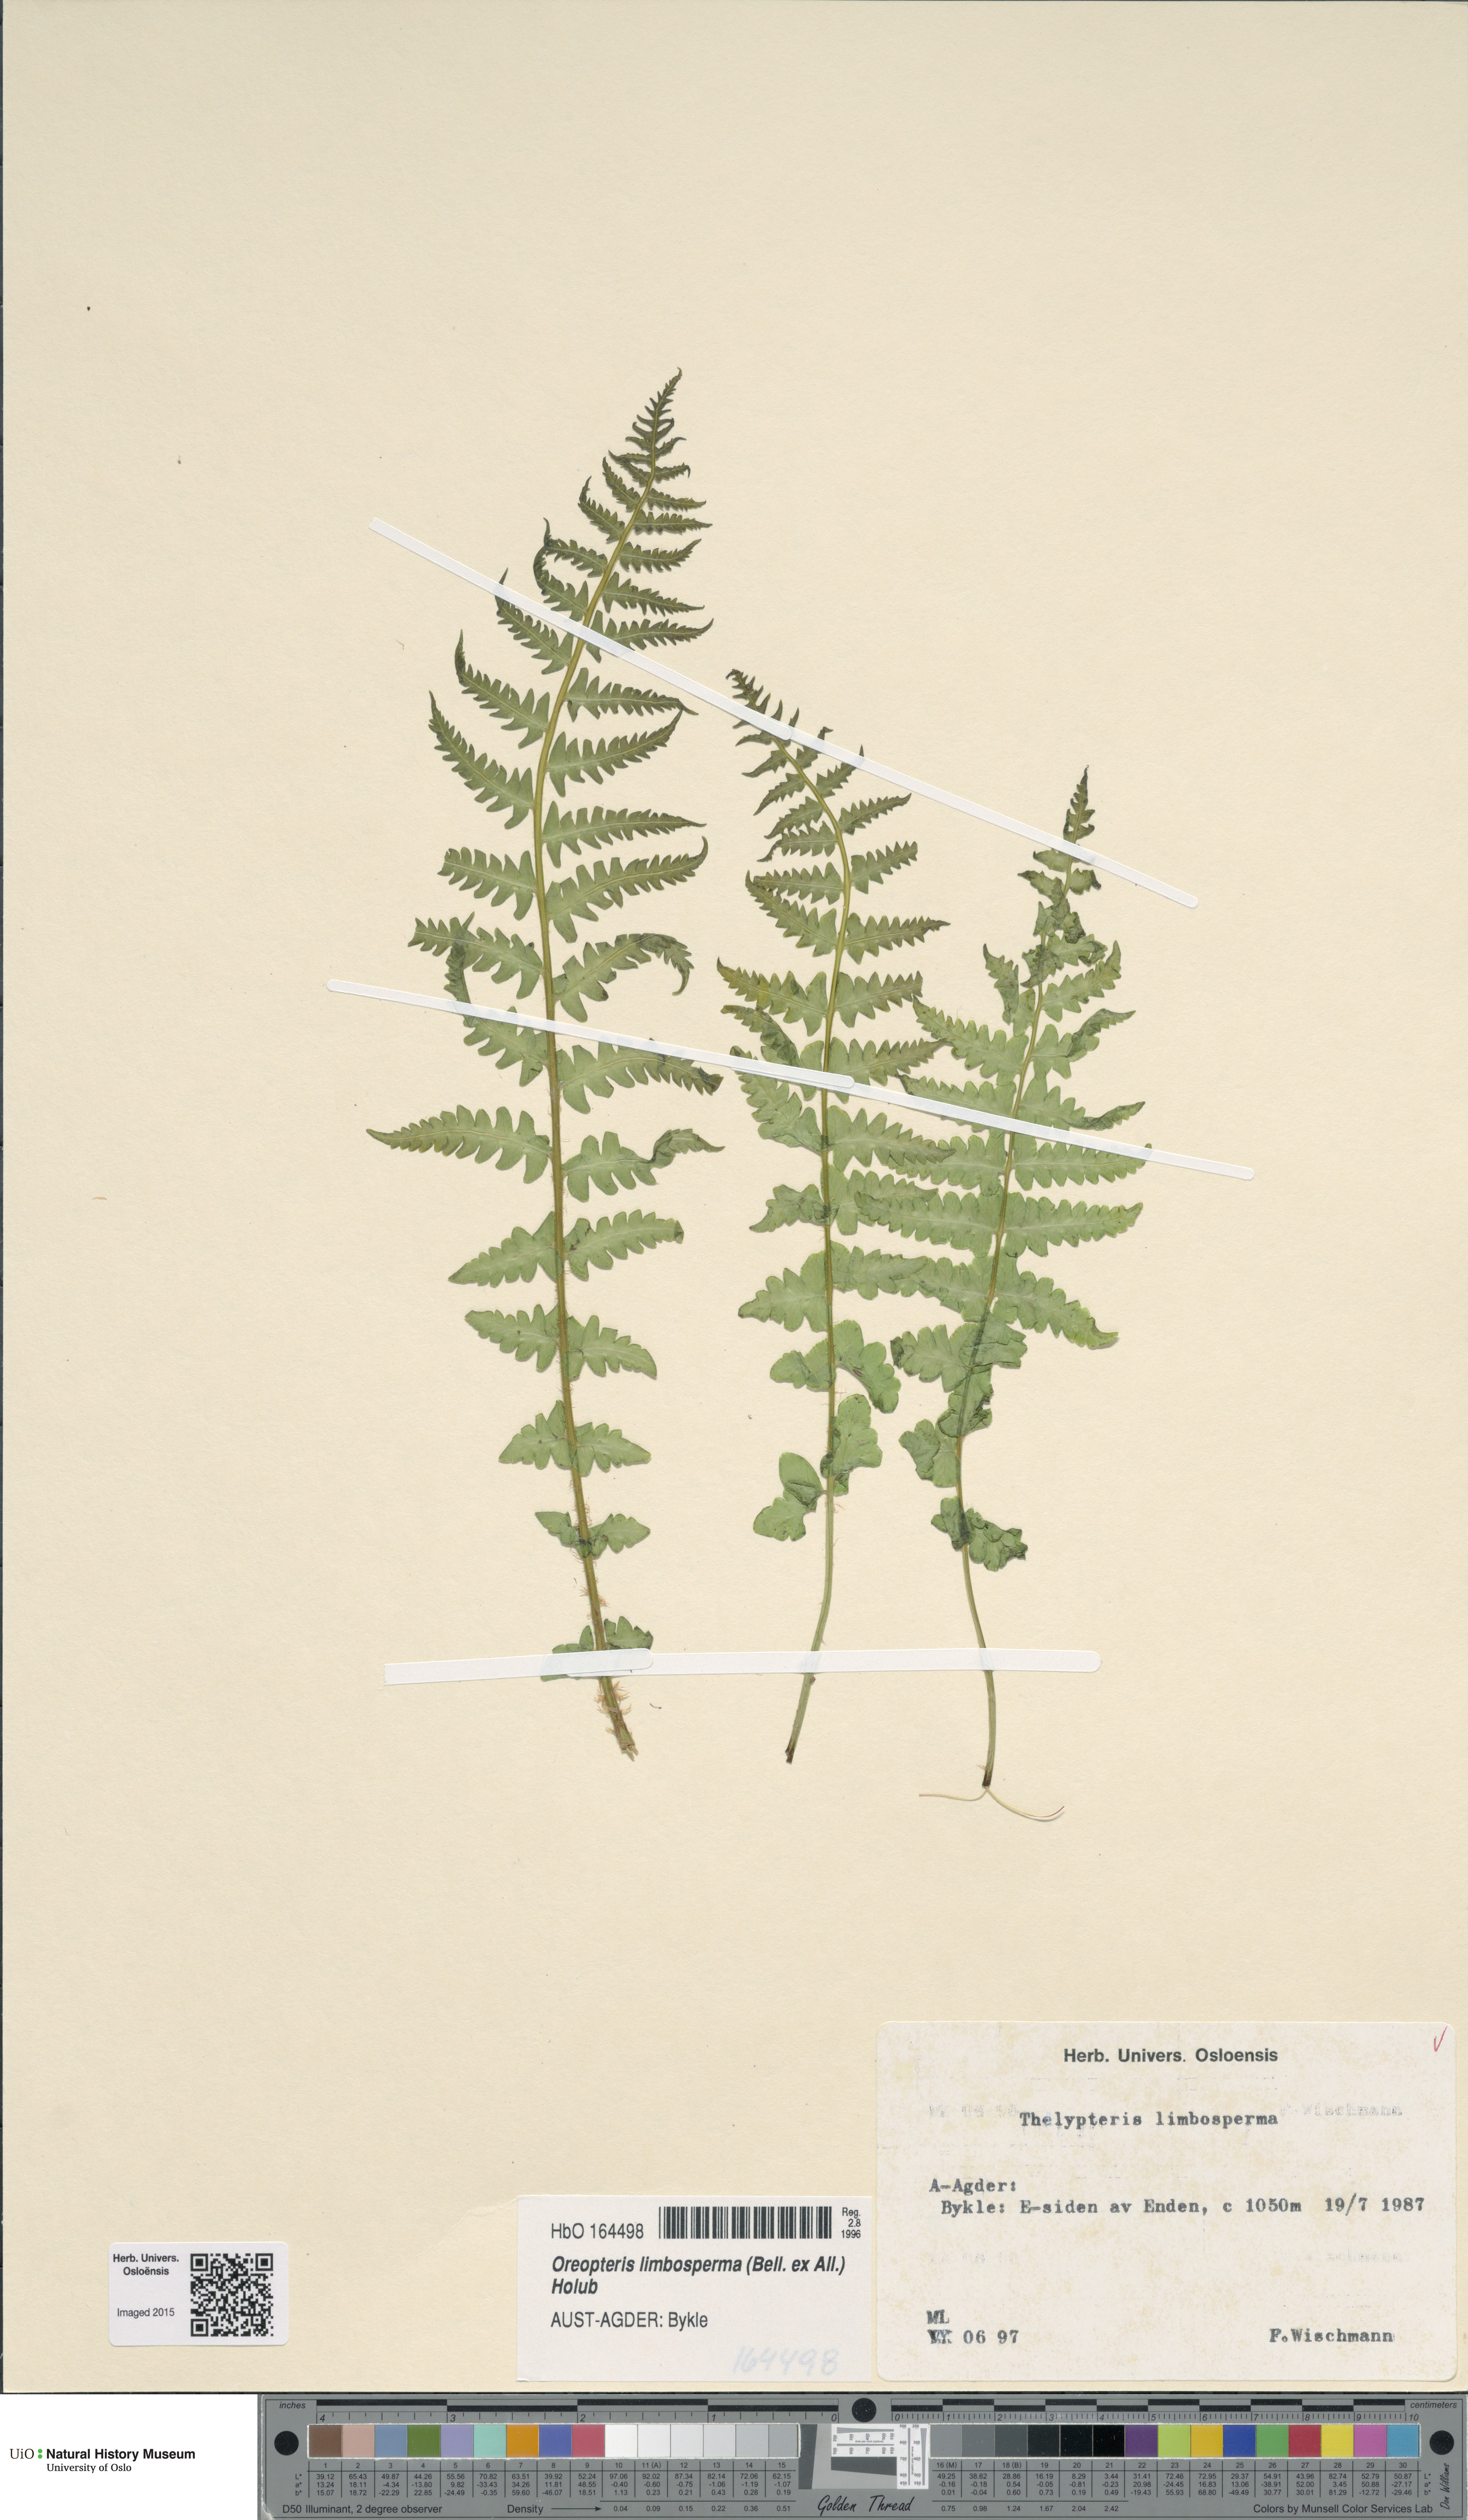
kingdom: Plantae
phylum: Tracheophyta
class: Polypodiopsida
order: Polypodiales
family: Thelypteridaceae
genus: Oreopteris
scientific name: Oreopteris limbosperma
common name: Lemon-scented fern
